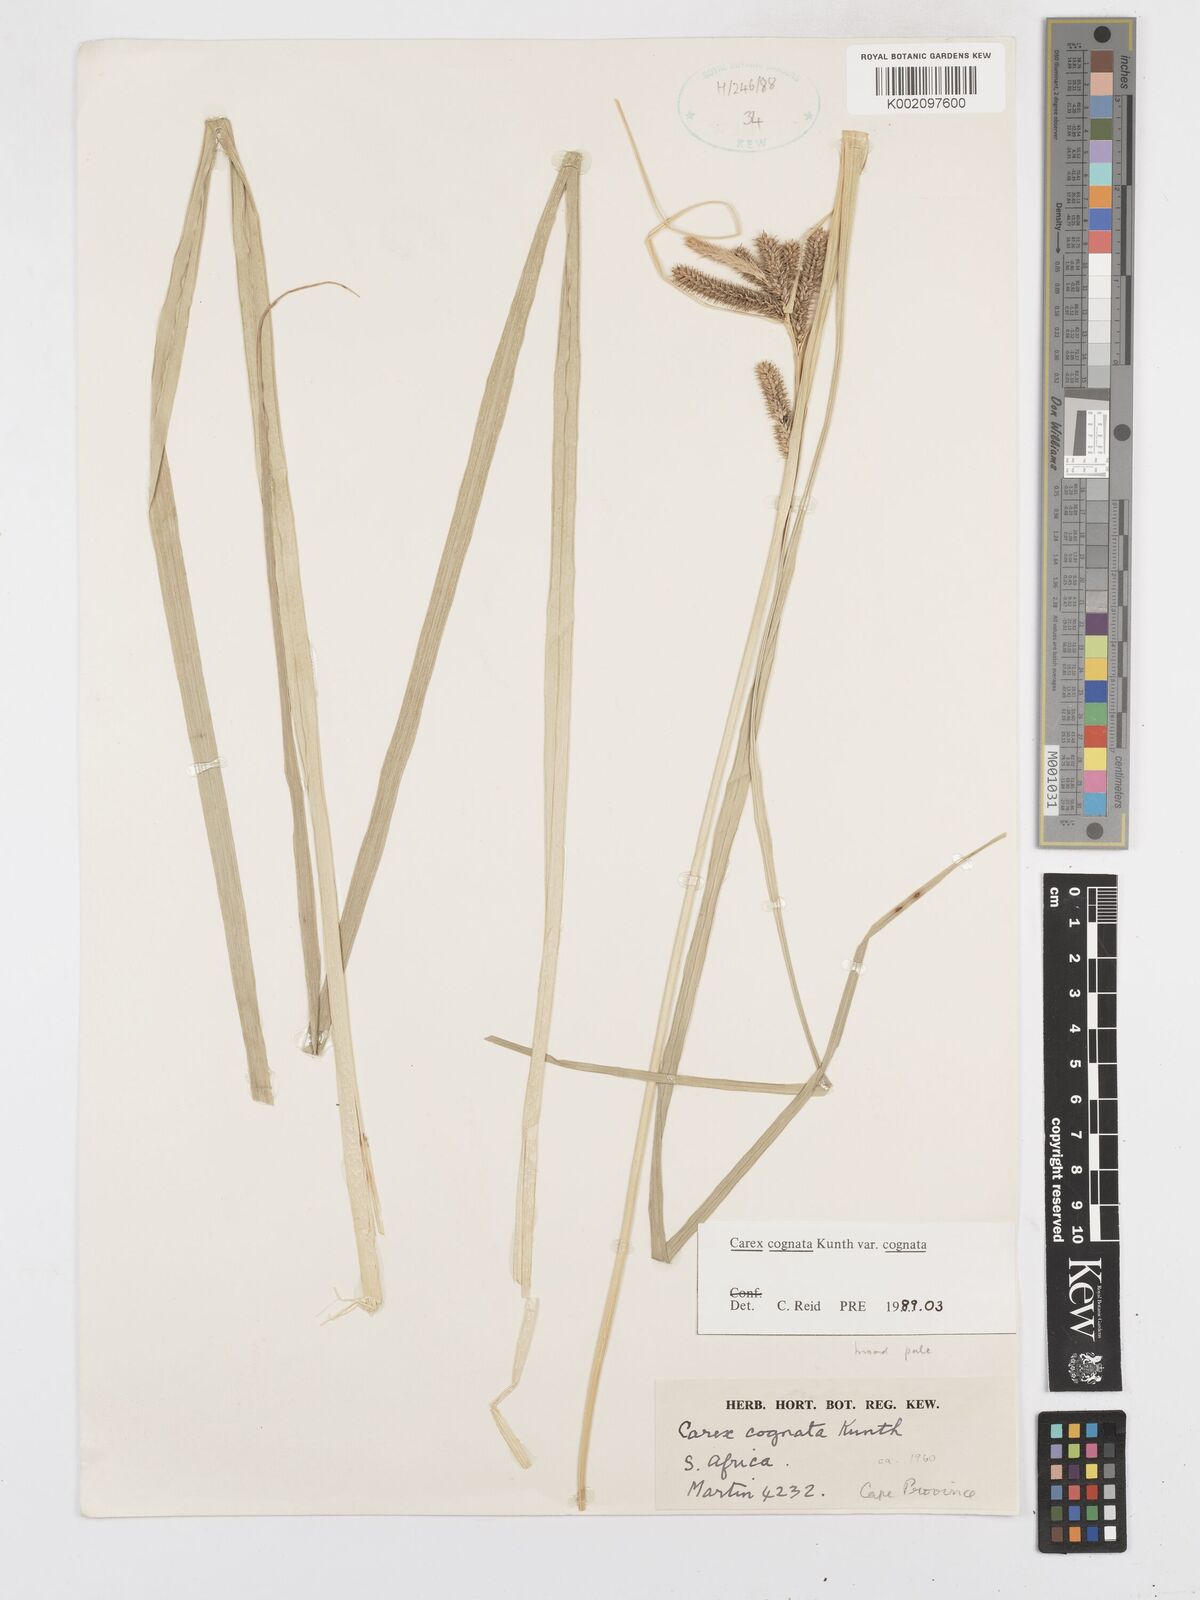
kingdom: Plantae
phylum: Tracheophyta
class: Liliopsida
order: Poales
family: Cyperaceae
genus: Carex
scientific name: Carex cognata
